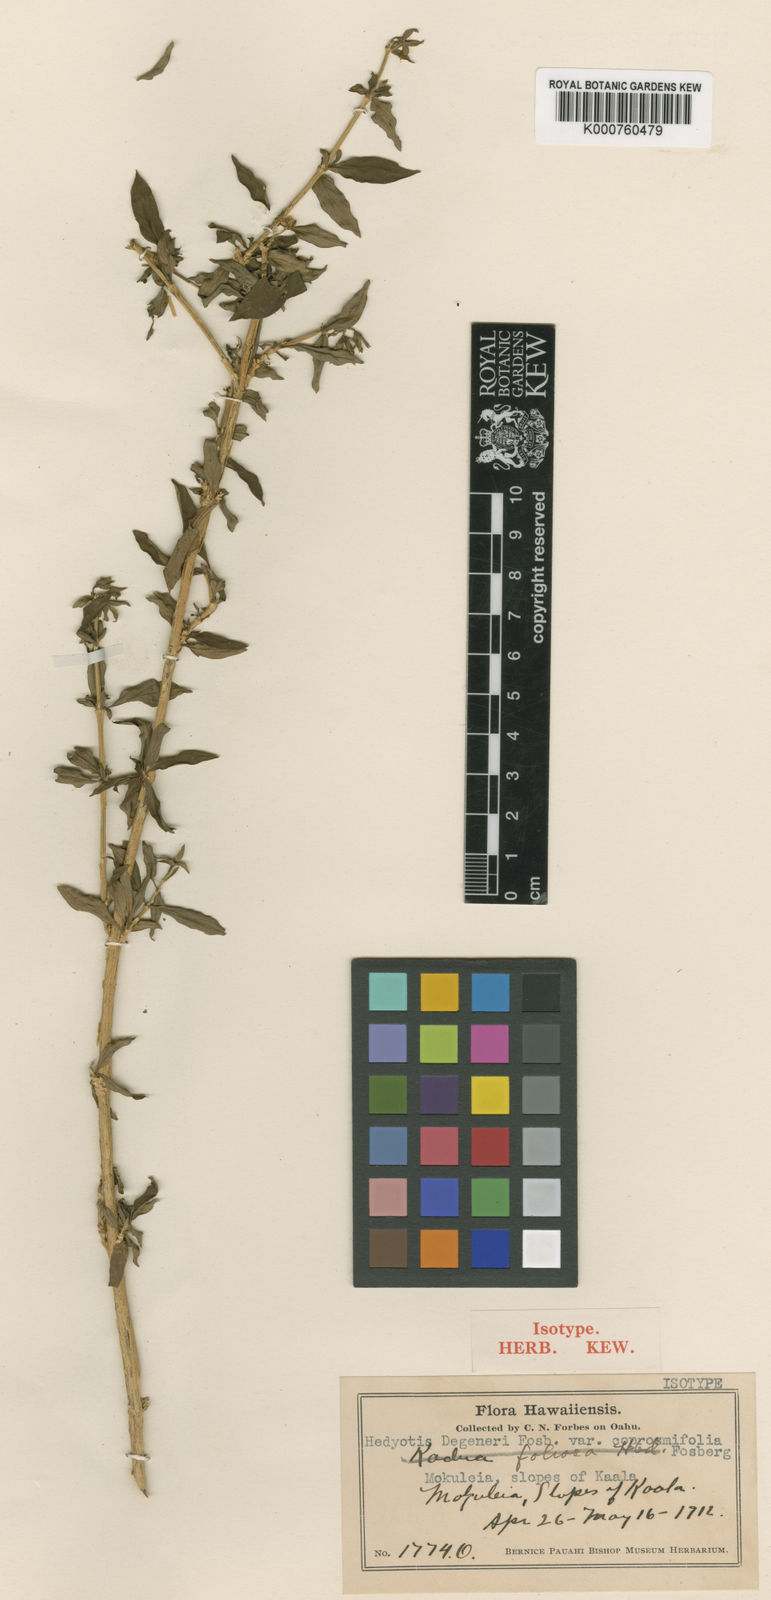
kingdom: Plantae
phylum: Tracheophyta
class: Magnoliopsida
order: Gentianales
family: Rubiaceae
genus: Kadua
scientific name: Kadua degeneri
